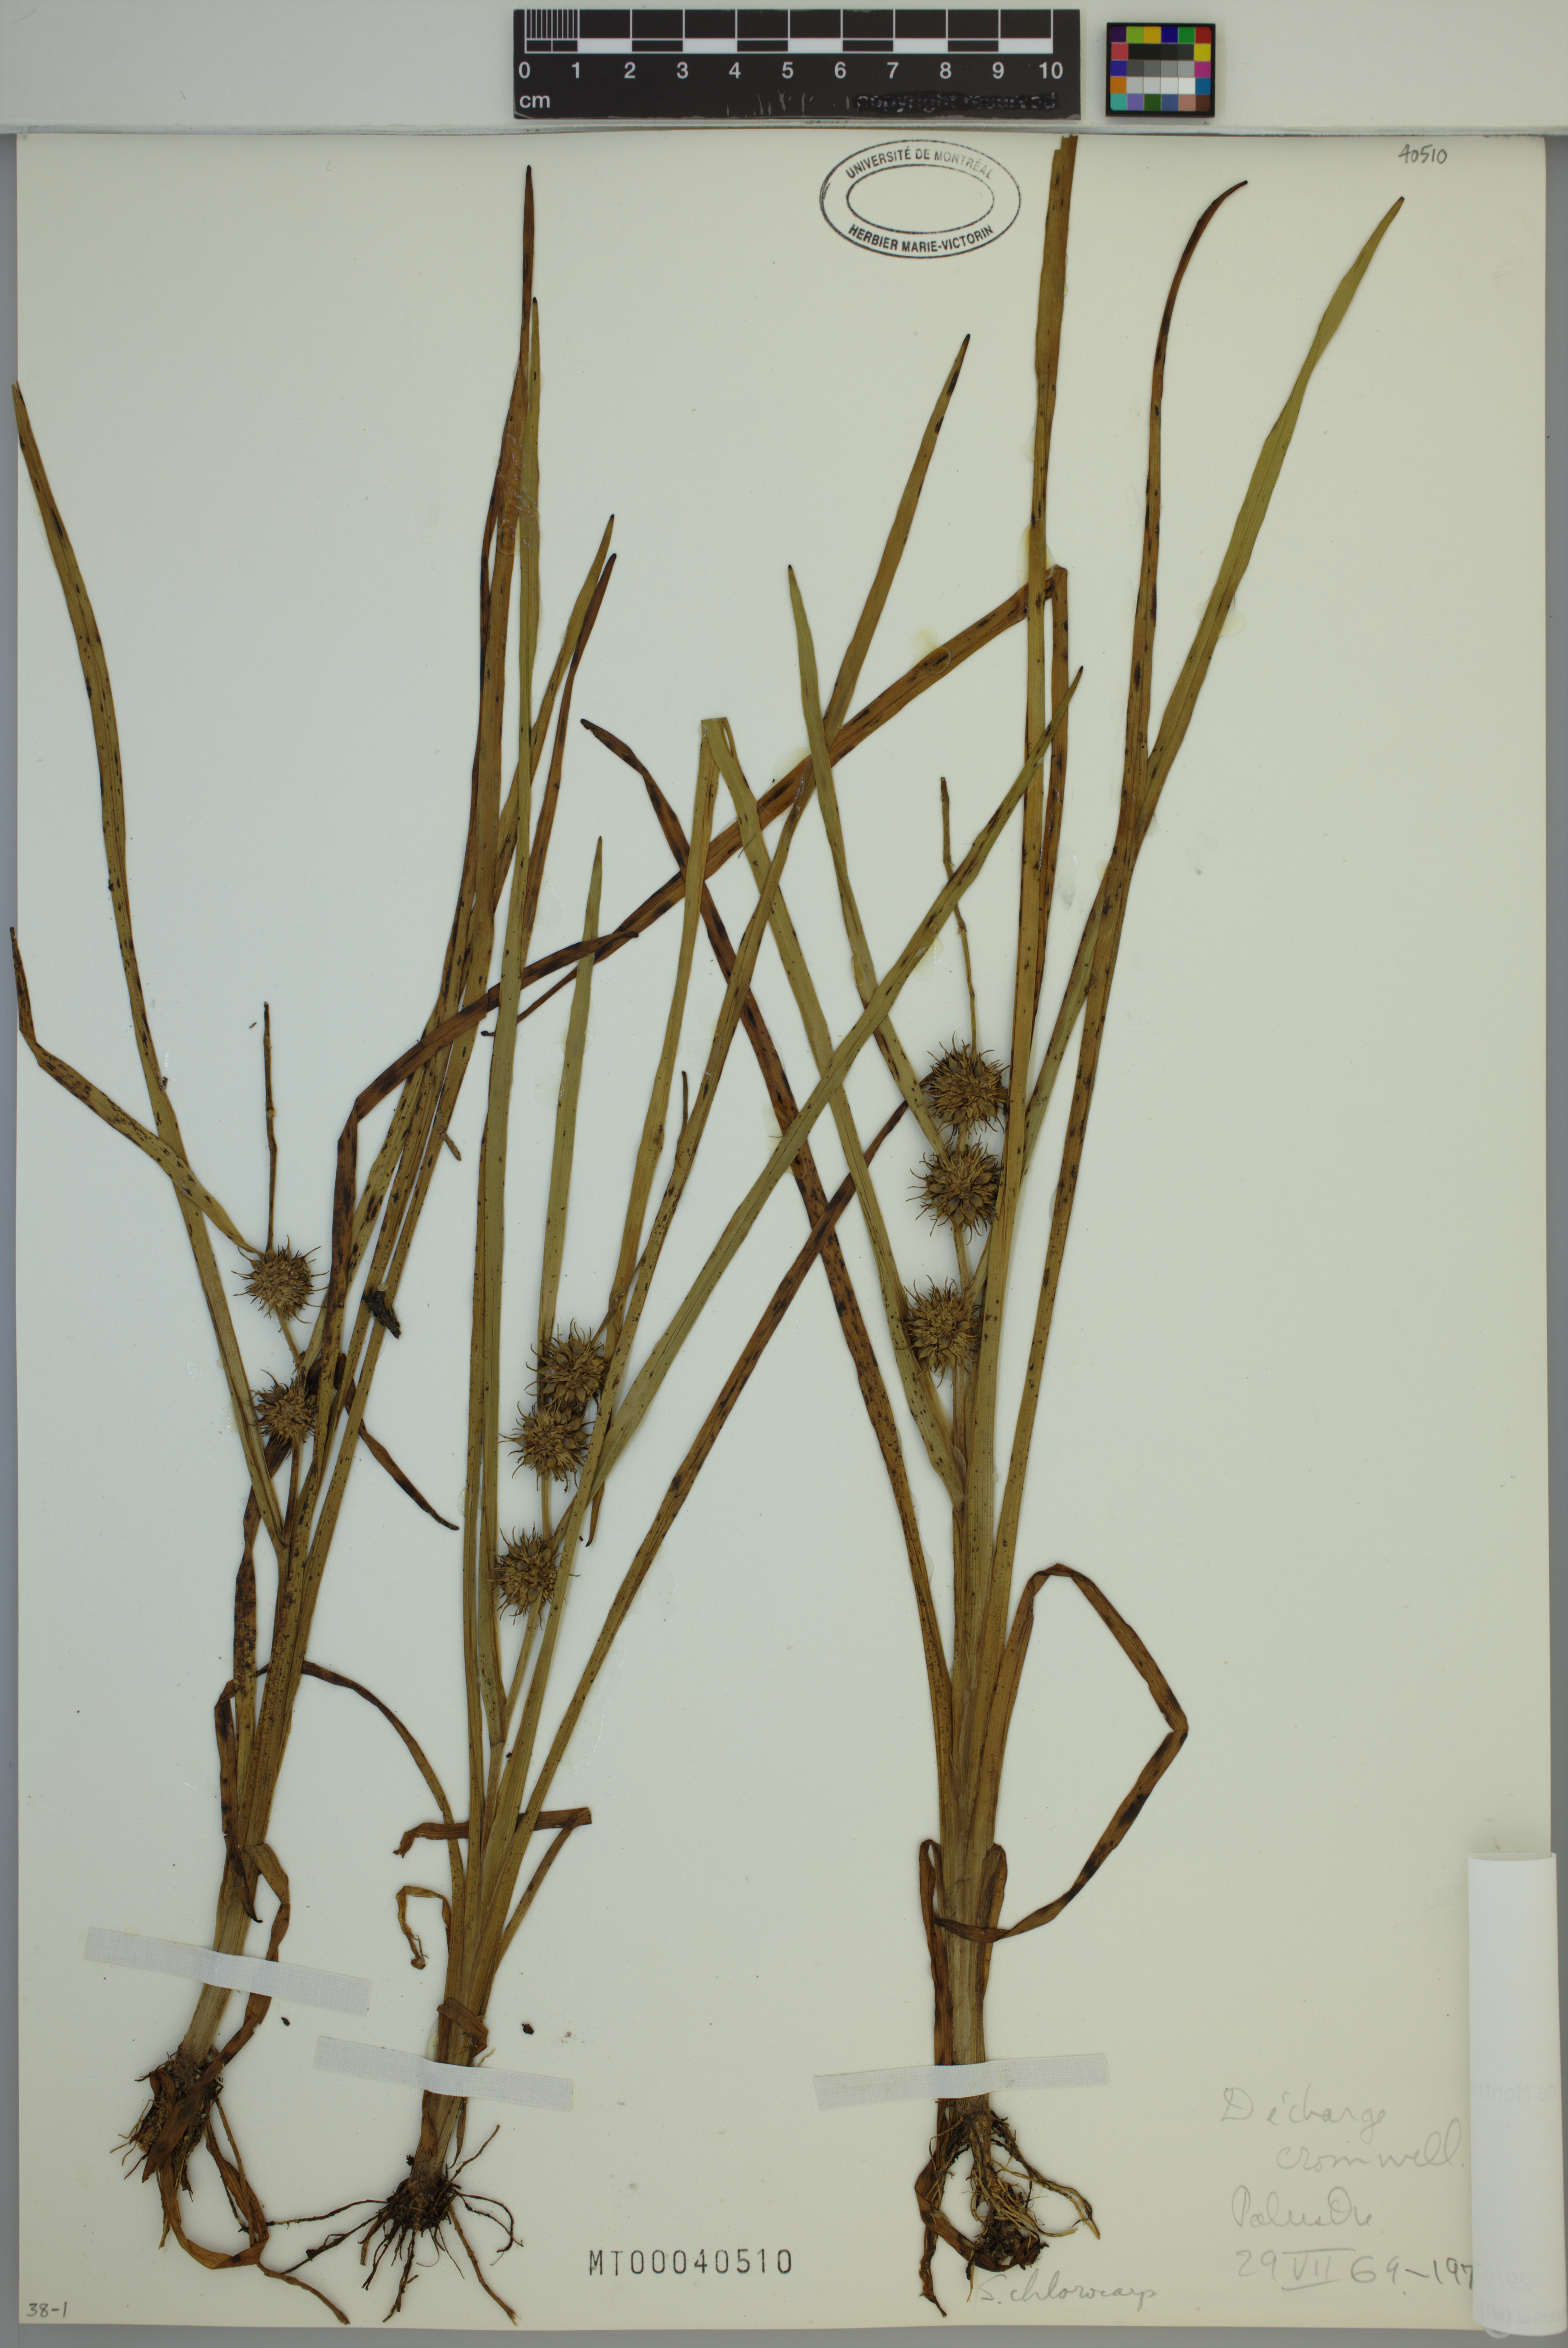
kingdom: Plantae
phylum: Tracheophyta
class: Liliopsida
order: Poales
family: Typhaceae
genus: Sparganium
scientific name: Sparganium emersum
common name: Unbranched bur-reed
